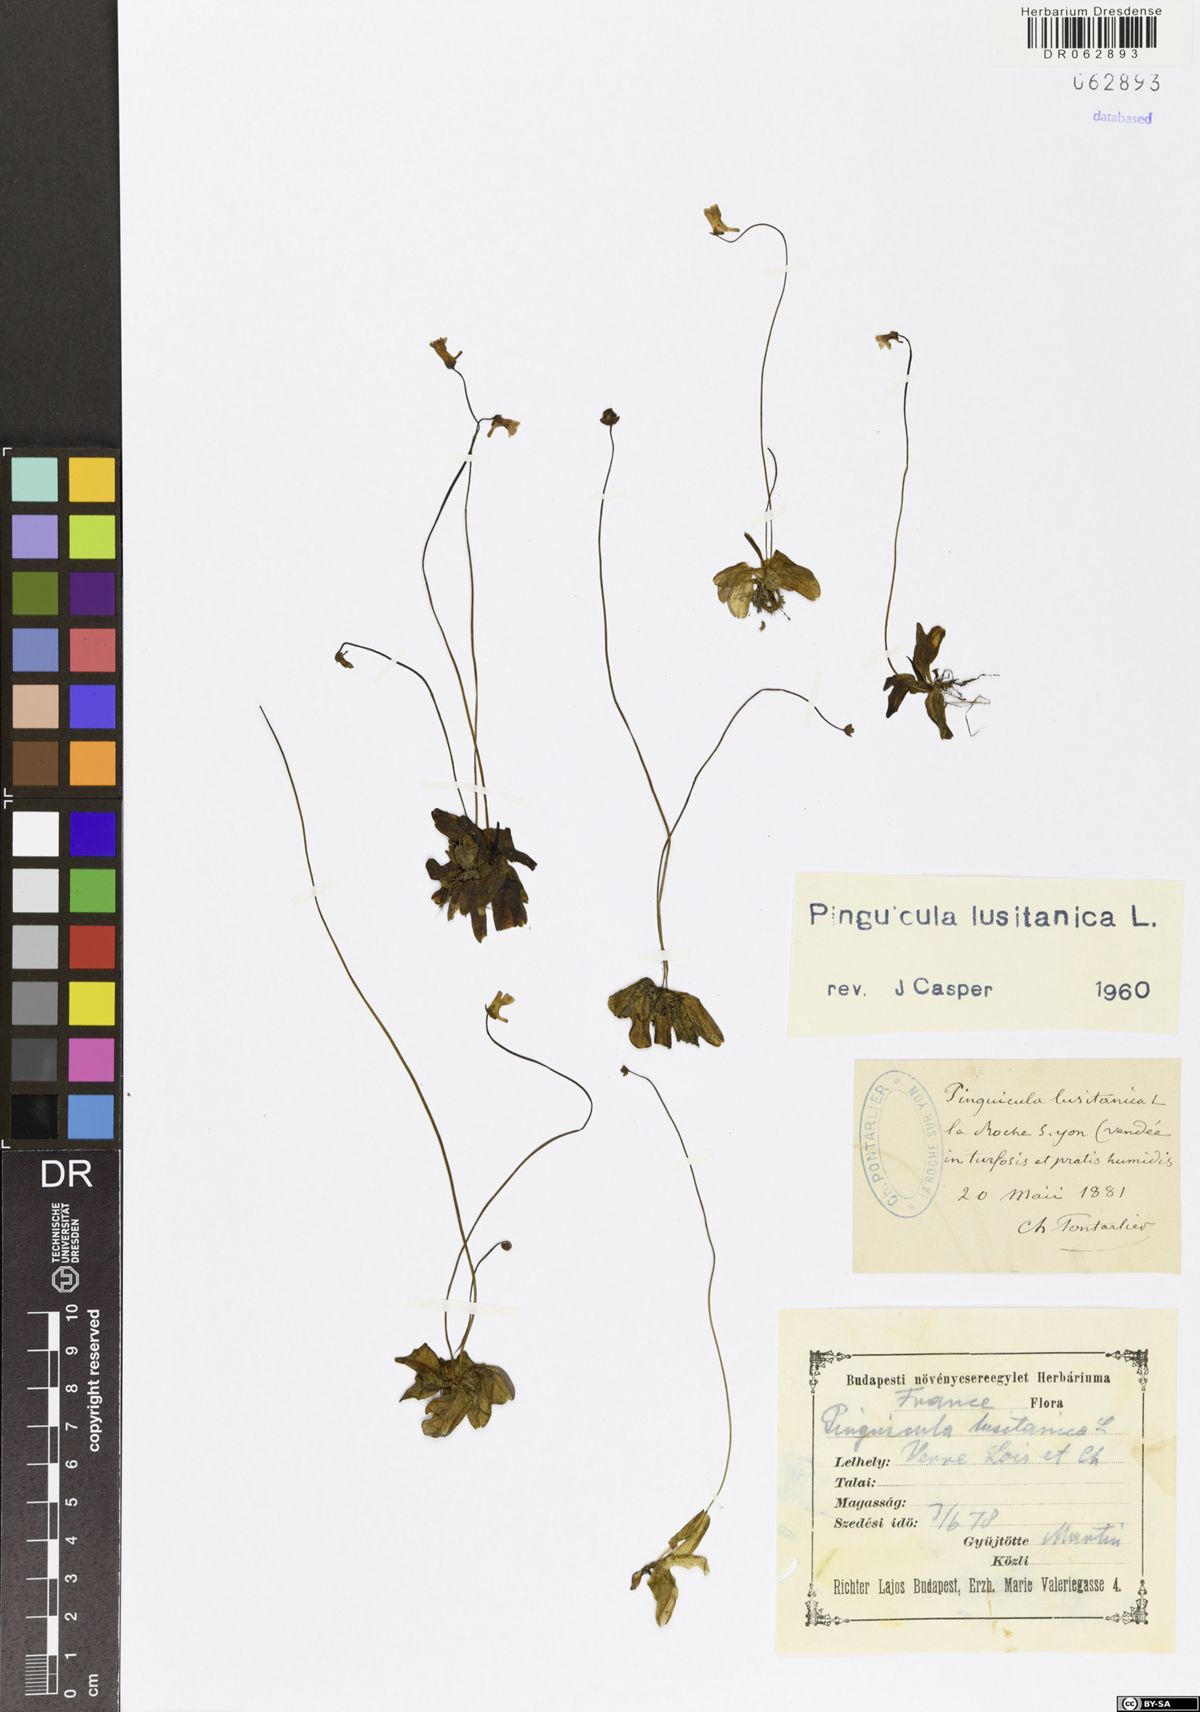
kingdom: Plantae
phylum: Tracheophyta
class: Magnoliopsida
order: Lamiales
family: Lentibulariaceae
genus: Pinguicula
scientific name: Pinguicula lusitanica
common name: Pale butterwort
